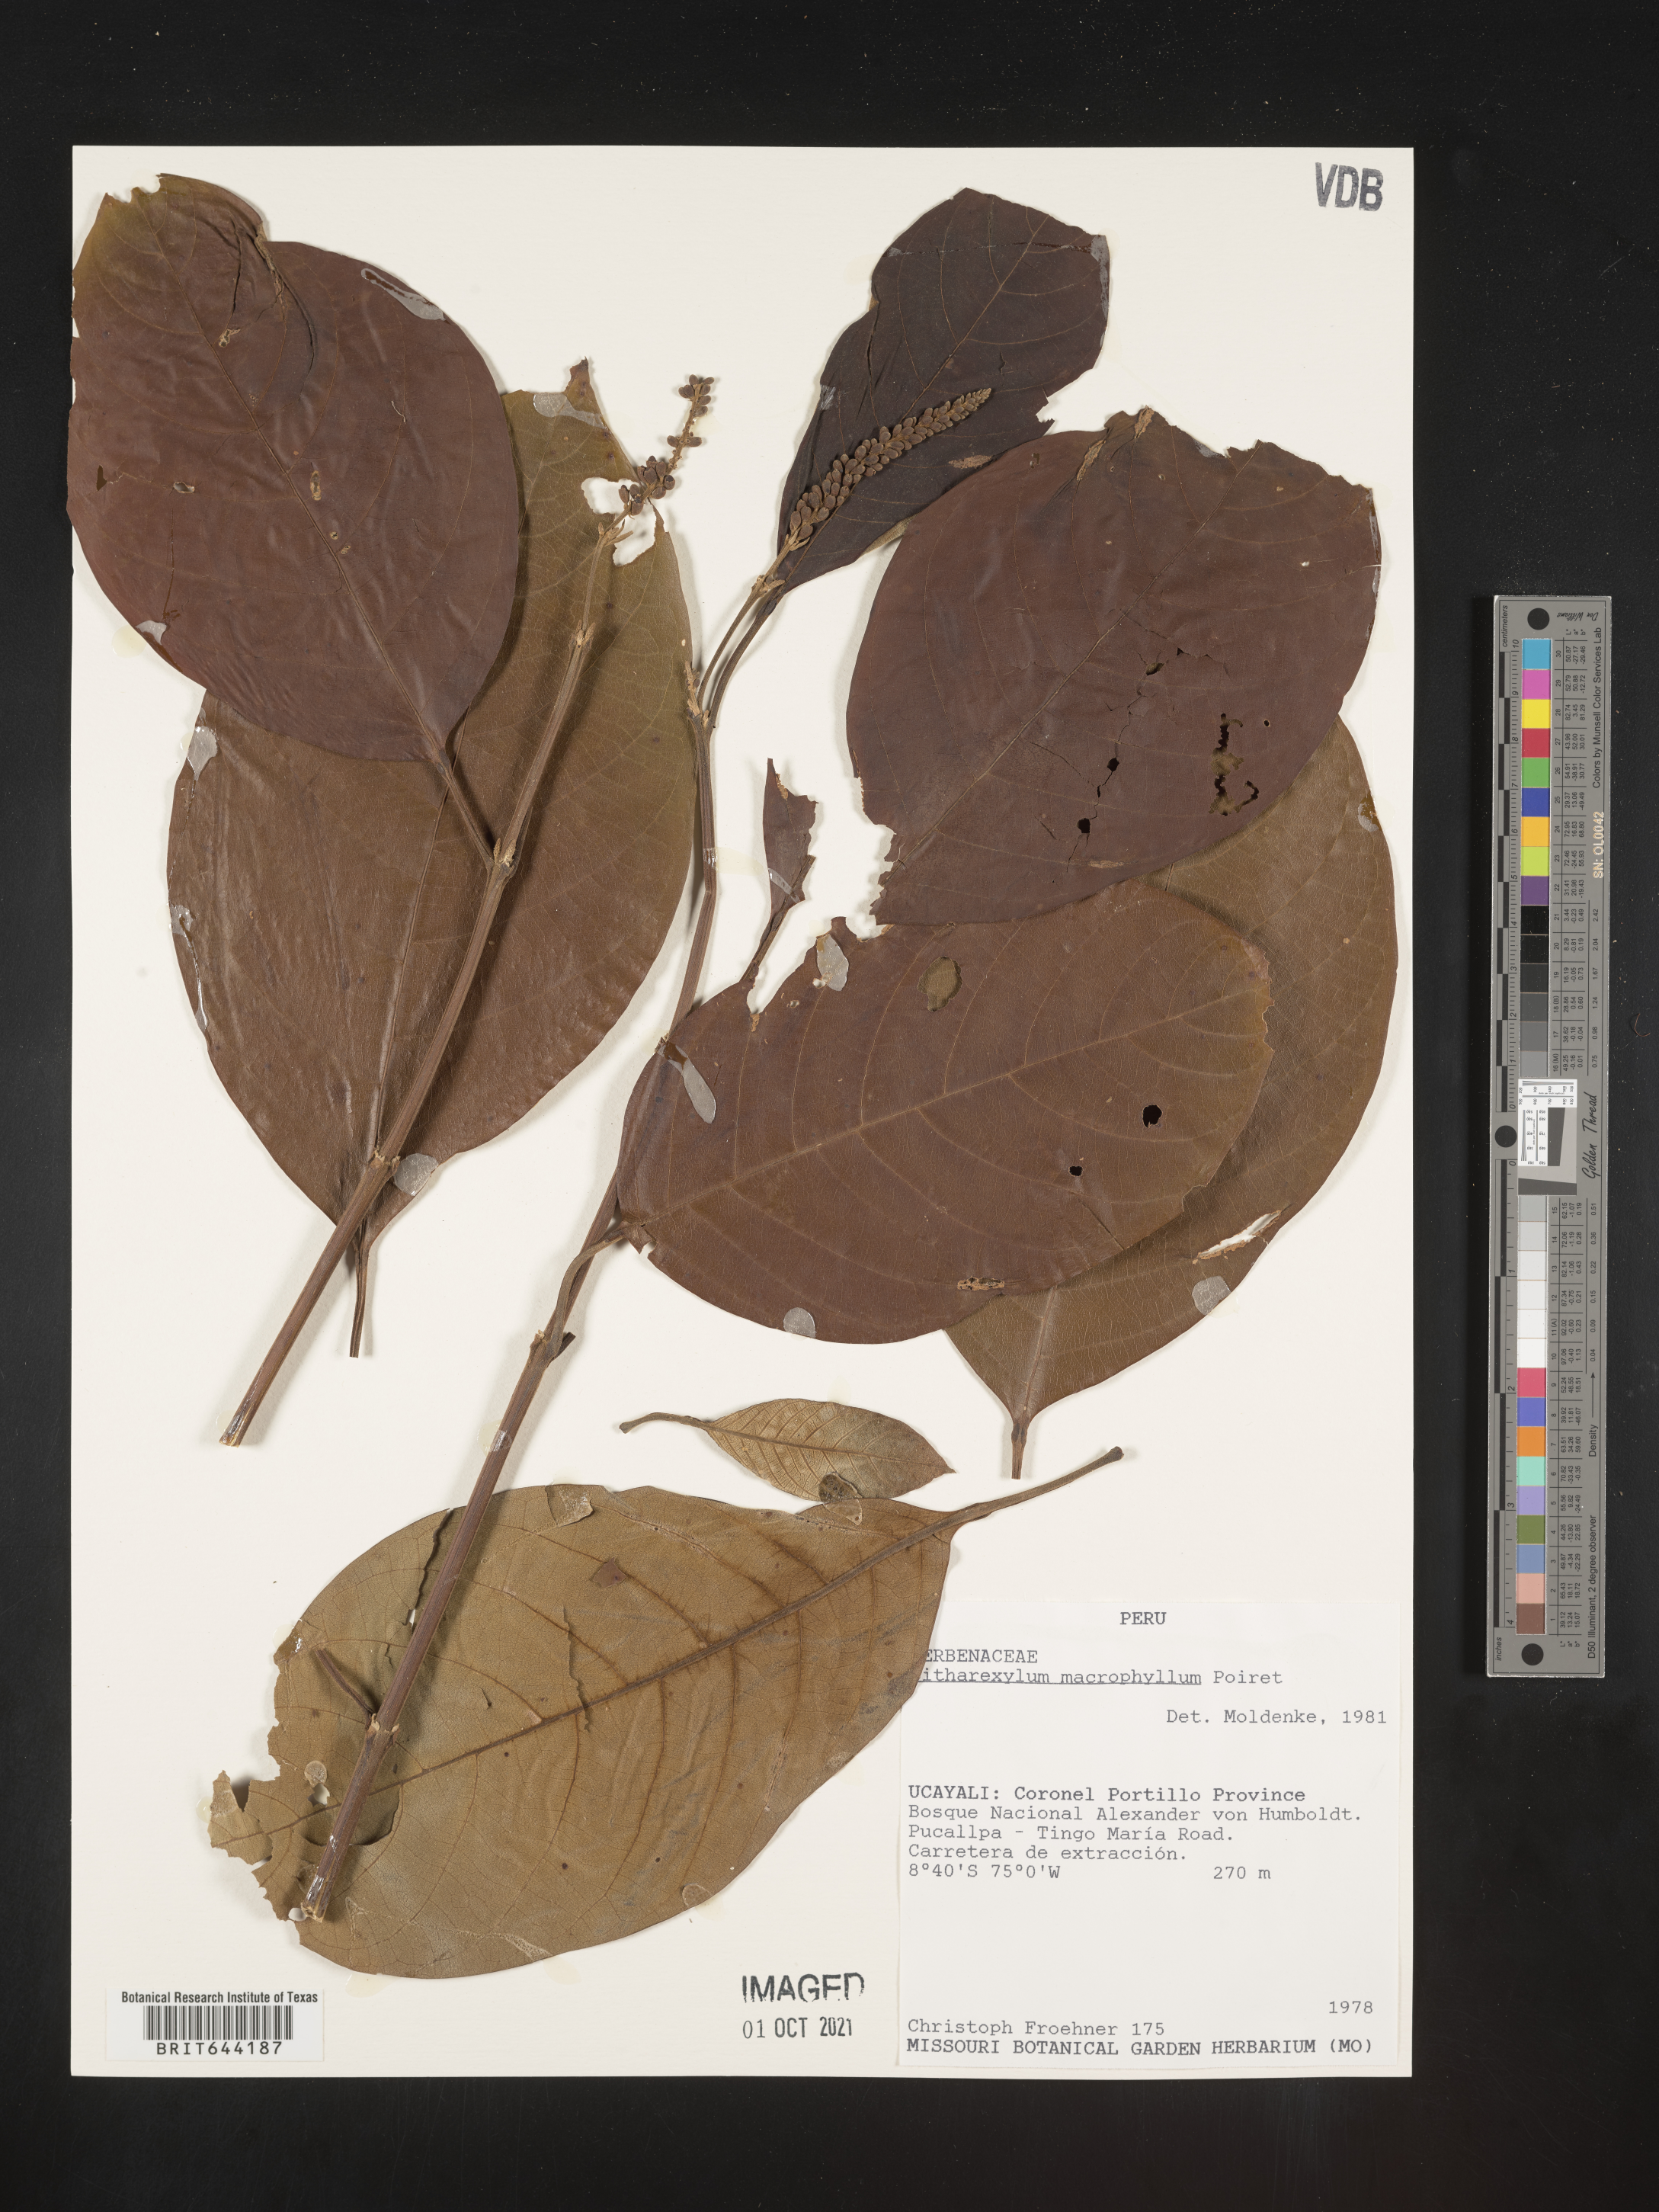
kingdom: Plantae
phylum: Tracheophyta
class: Magnoliopsida
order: Lamiales
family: Verbenaceae
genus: Citharexylum
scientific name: Citharexylum
